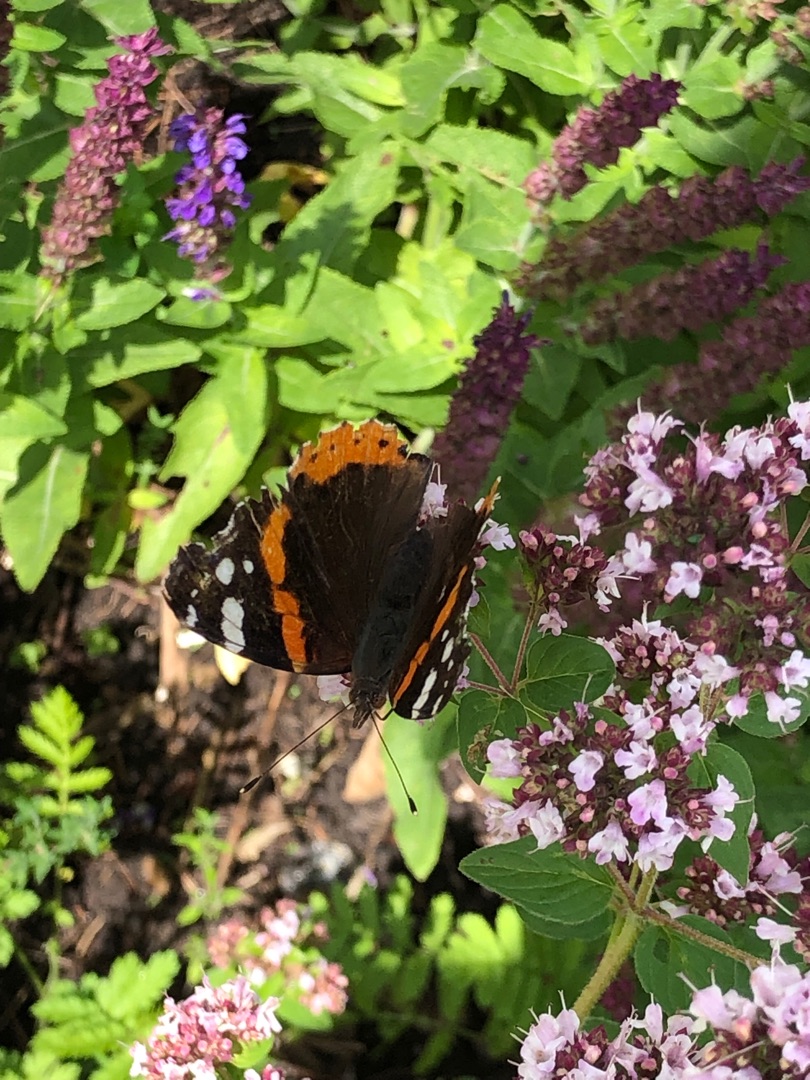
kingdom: Animalia
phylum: Arthropoda
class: Insecta
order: Lepidoptera
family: Nymphalidae
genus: Vanessa
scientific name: Vanessa atalanta
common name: Admiral
